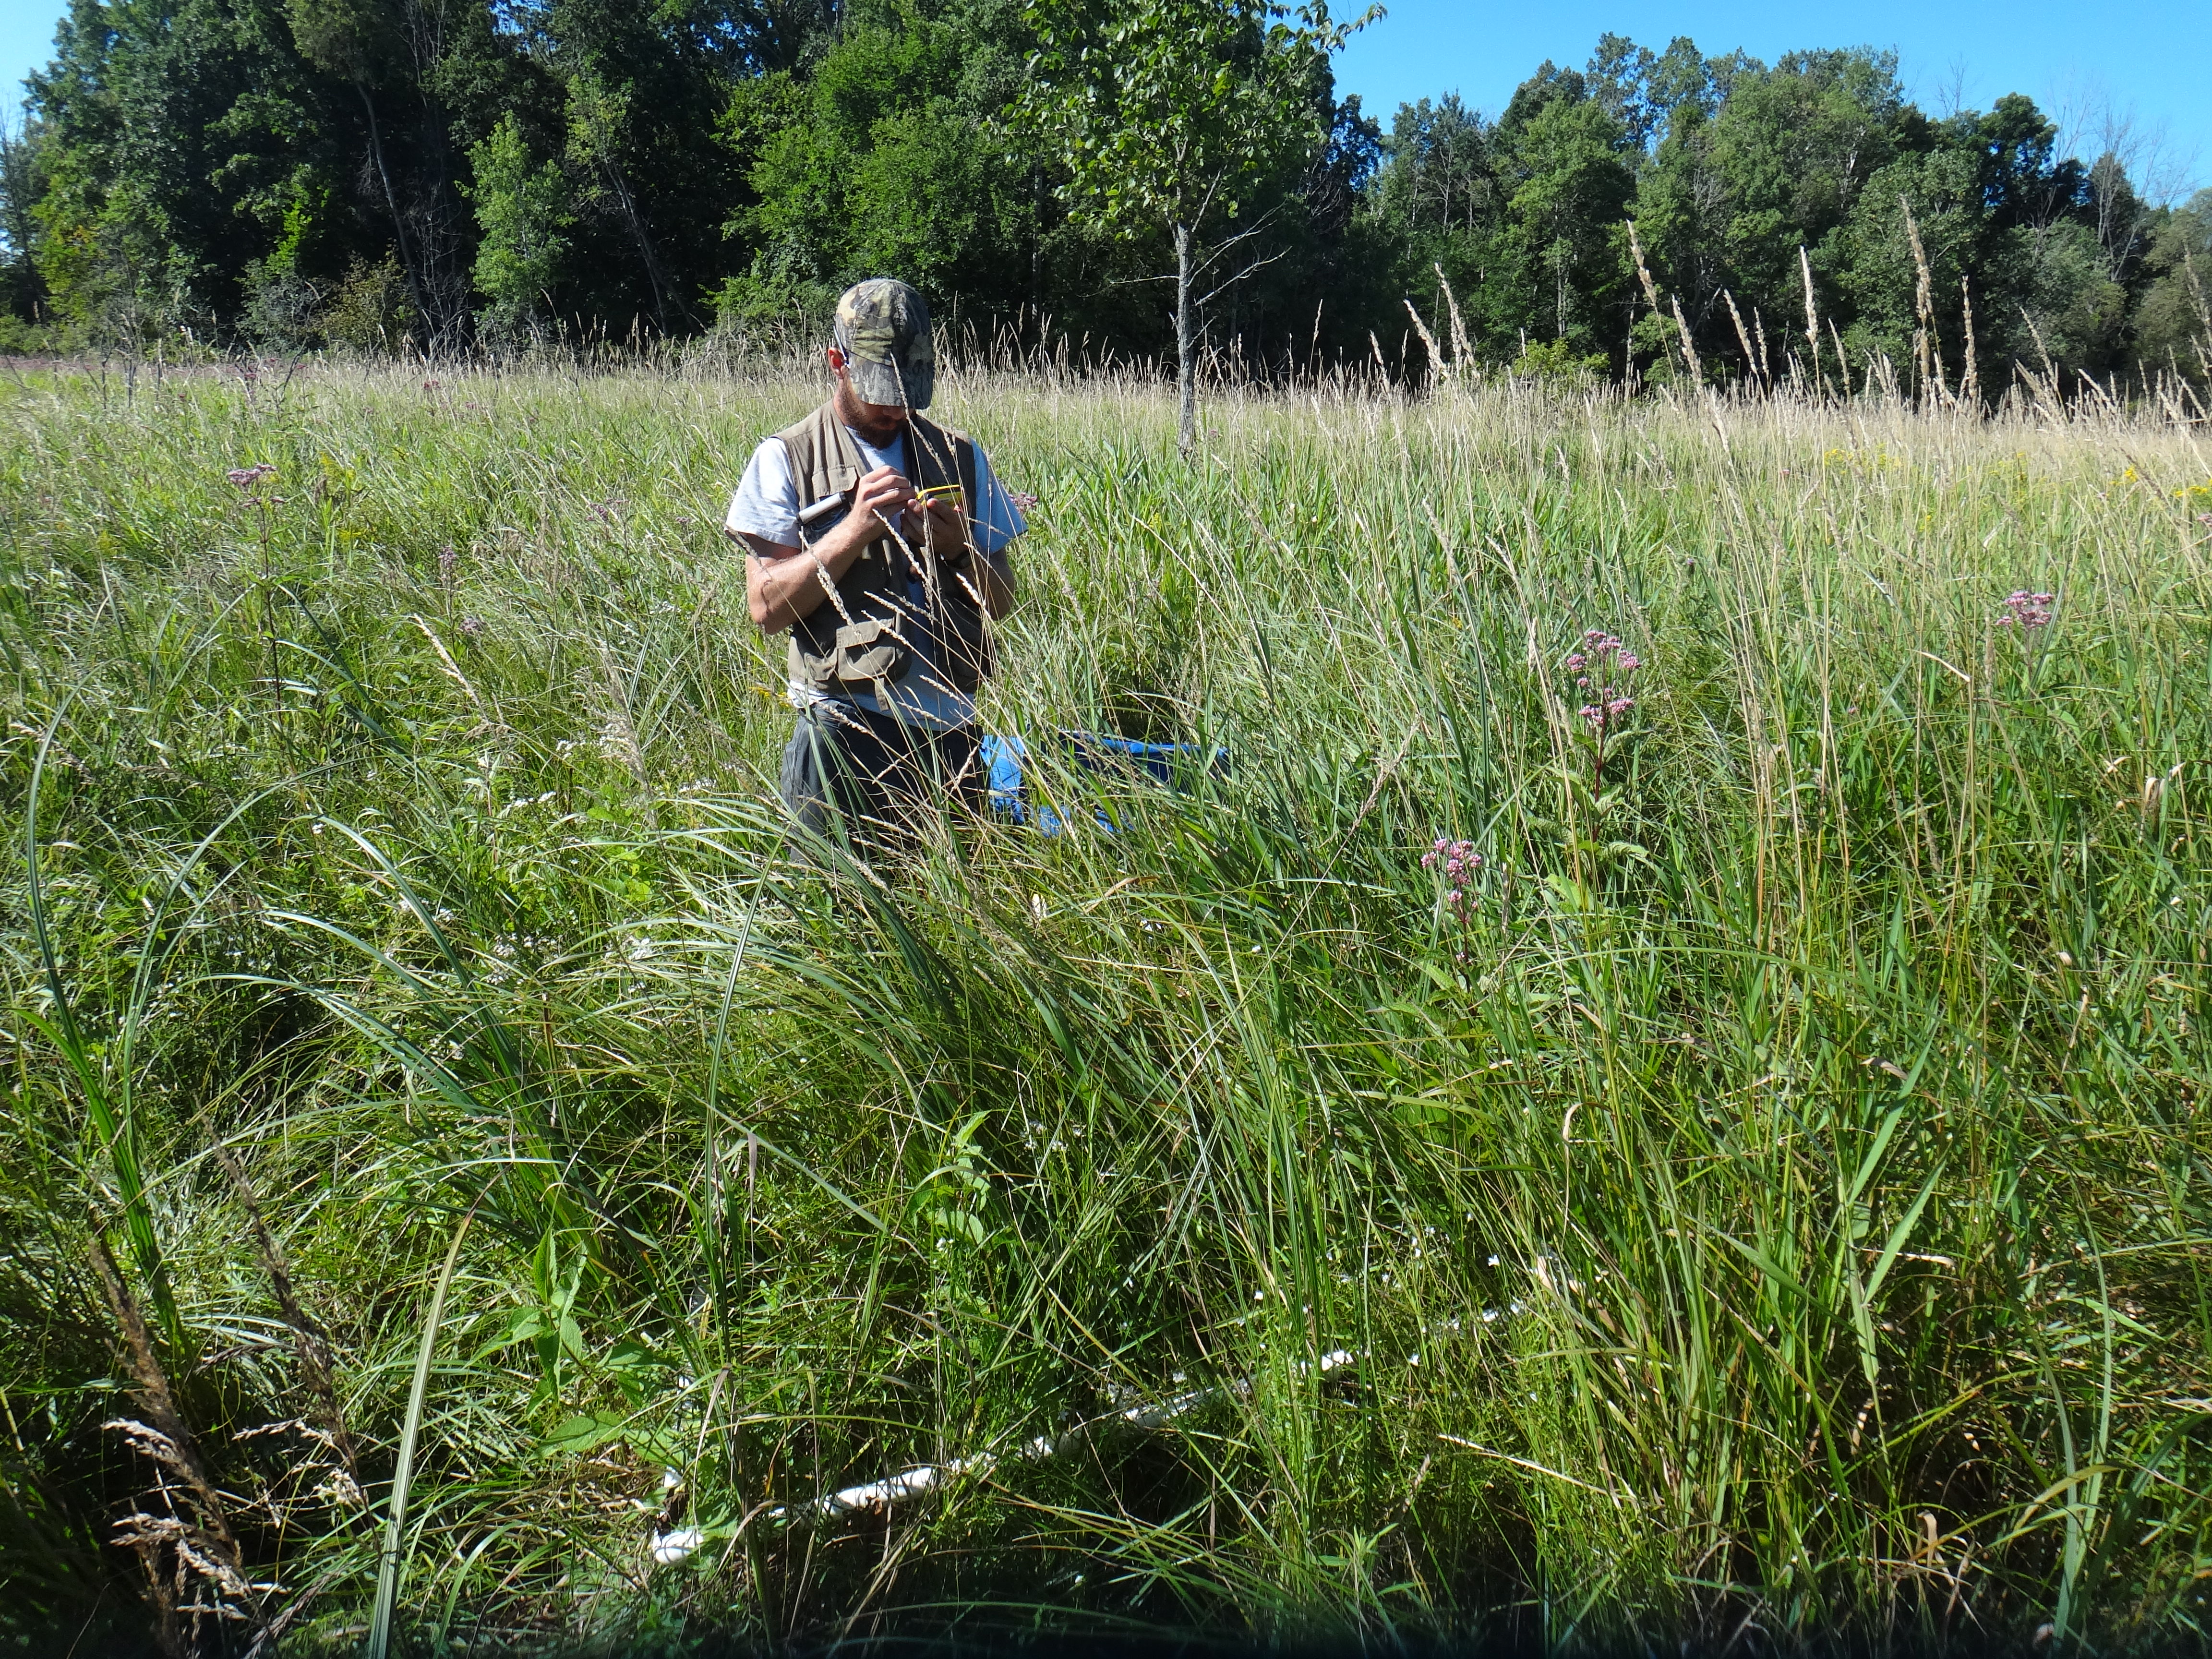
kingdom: Plantae
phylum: Tracheophyta
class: Magnoliopsida
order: Asterales
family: Asteraceae
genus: Eutrochium
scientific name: Eutrochium maculatum
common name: Spotted joe pye weed
